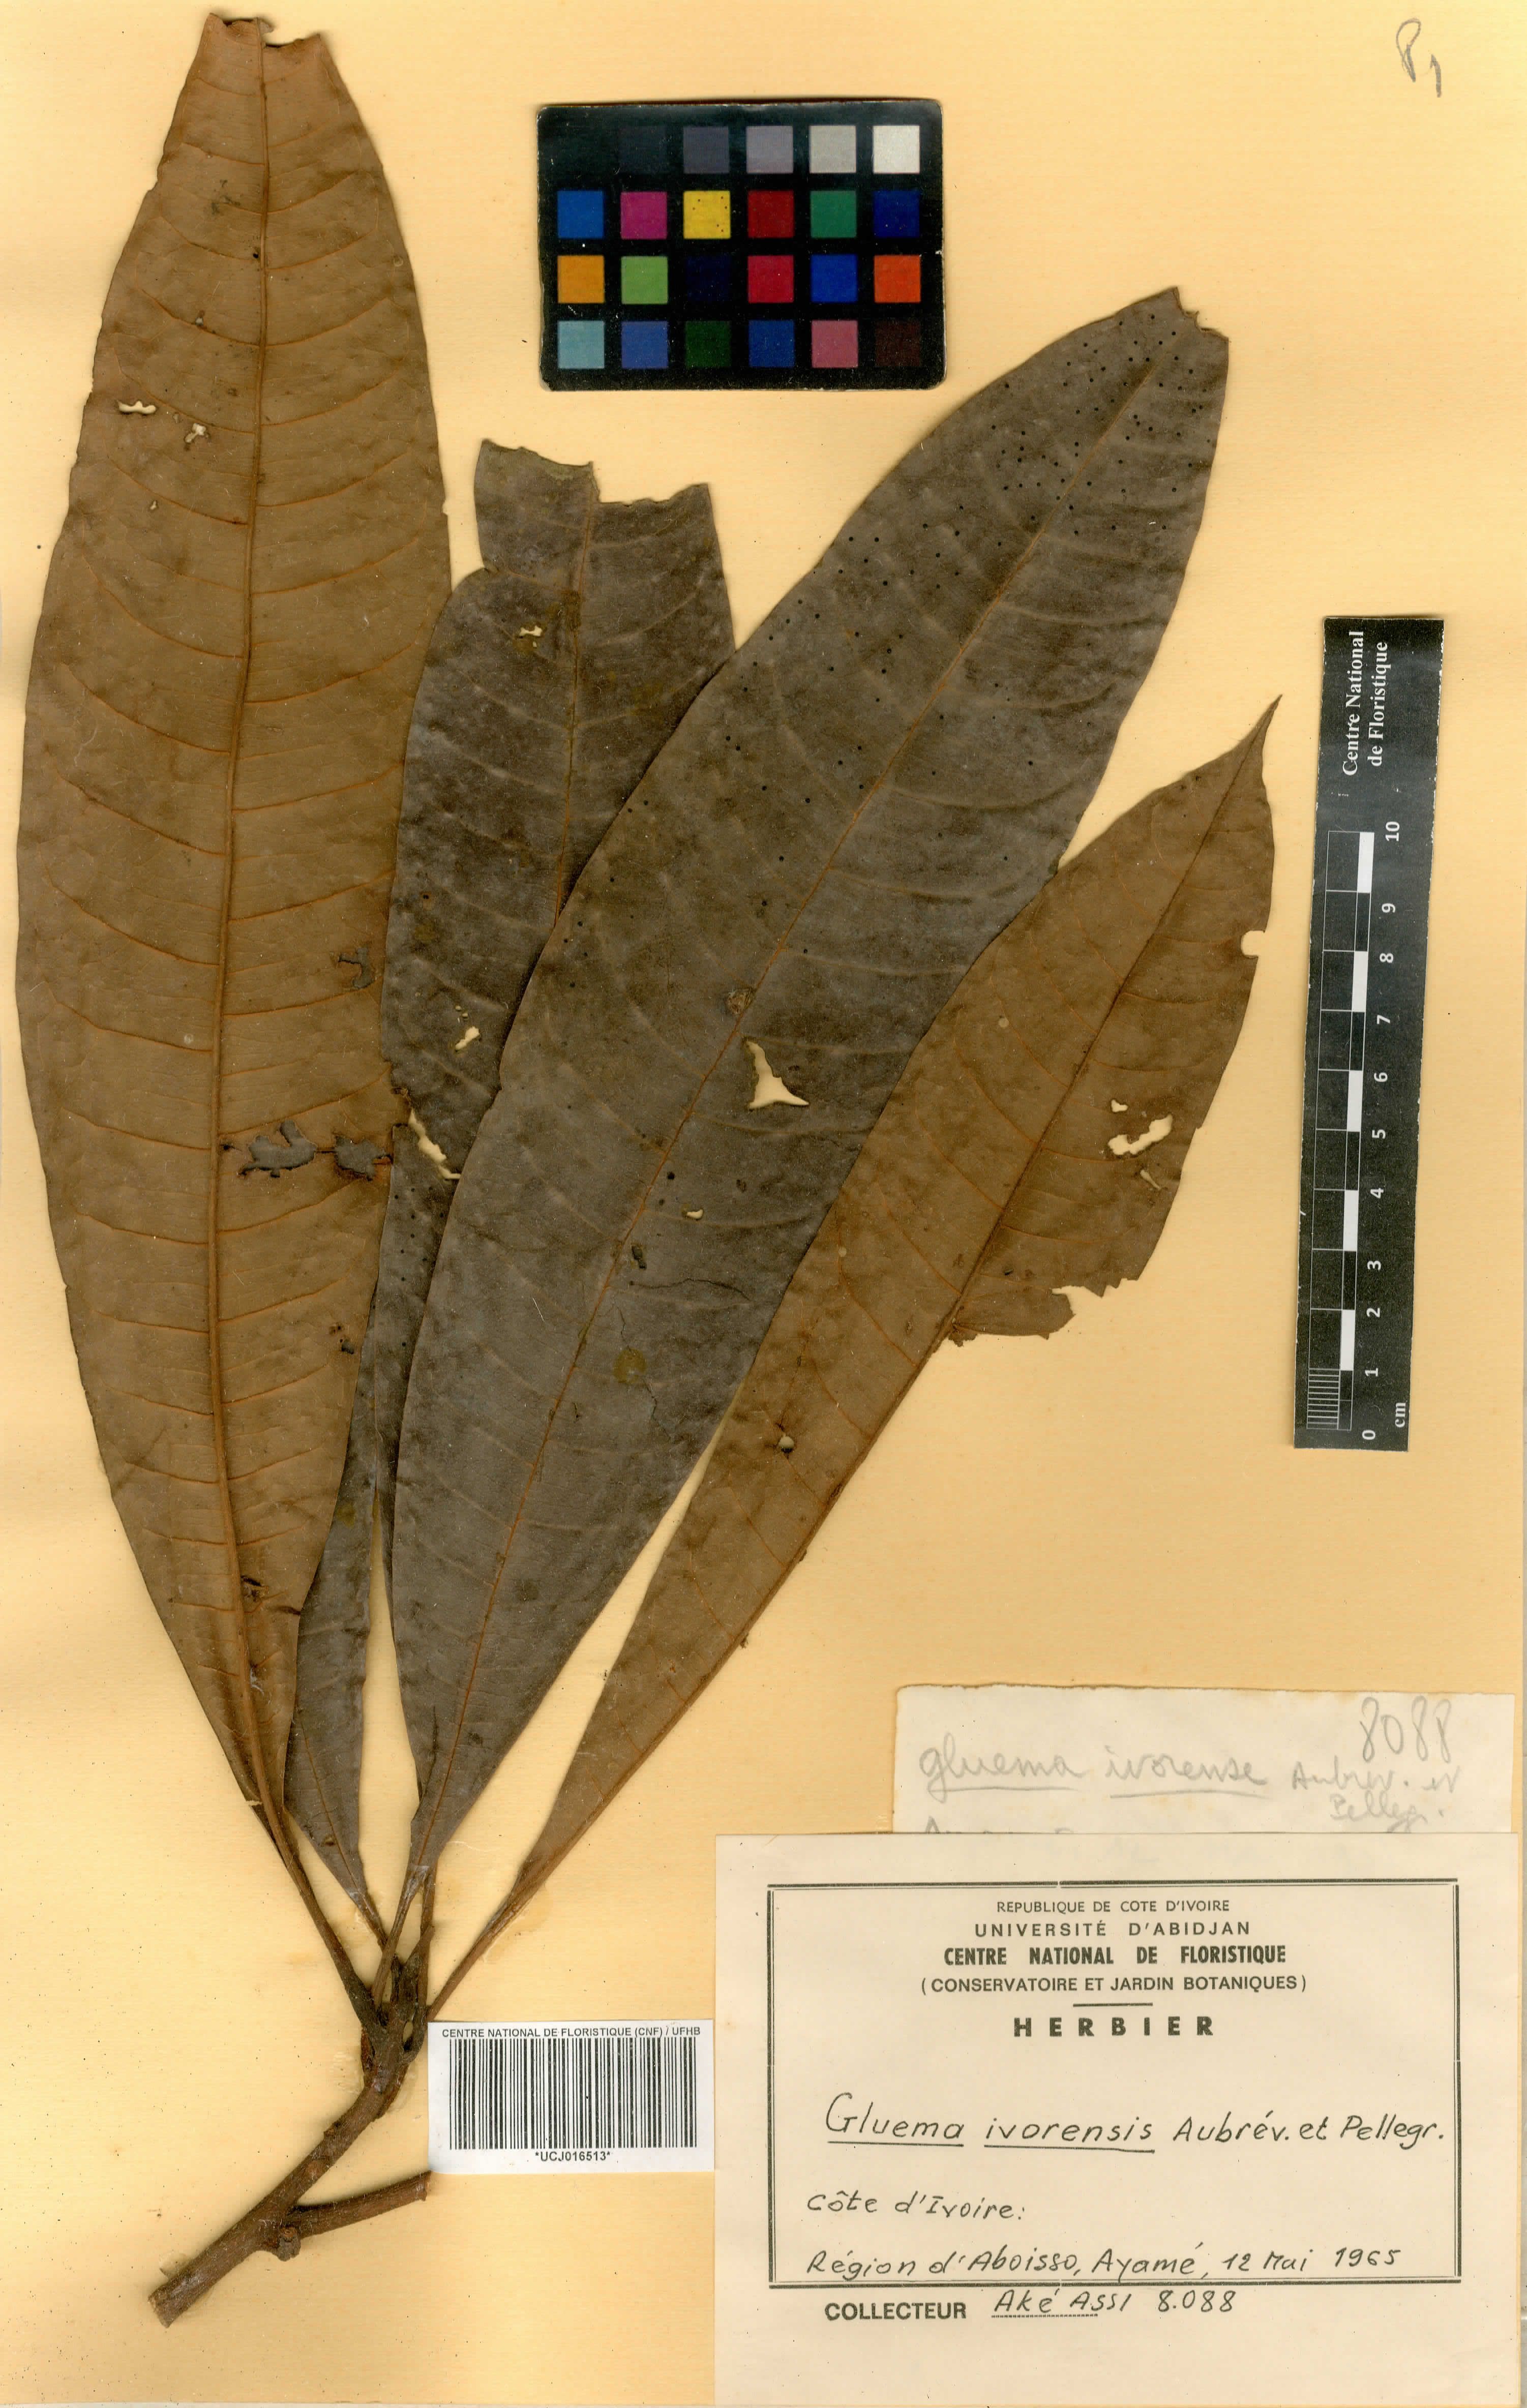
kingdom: Plantae
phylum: Tracheophyta
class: Magnoliopsida
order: Ericales
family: Sapotaceae
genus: Gluema
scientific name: Gluema ivorensis
